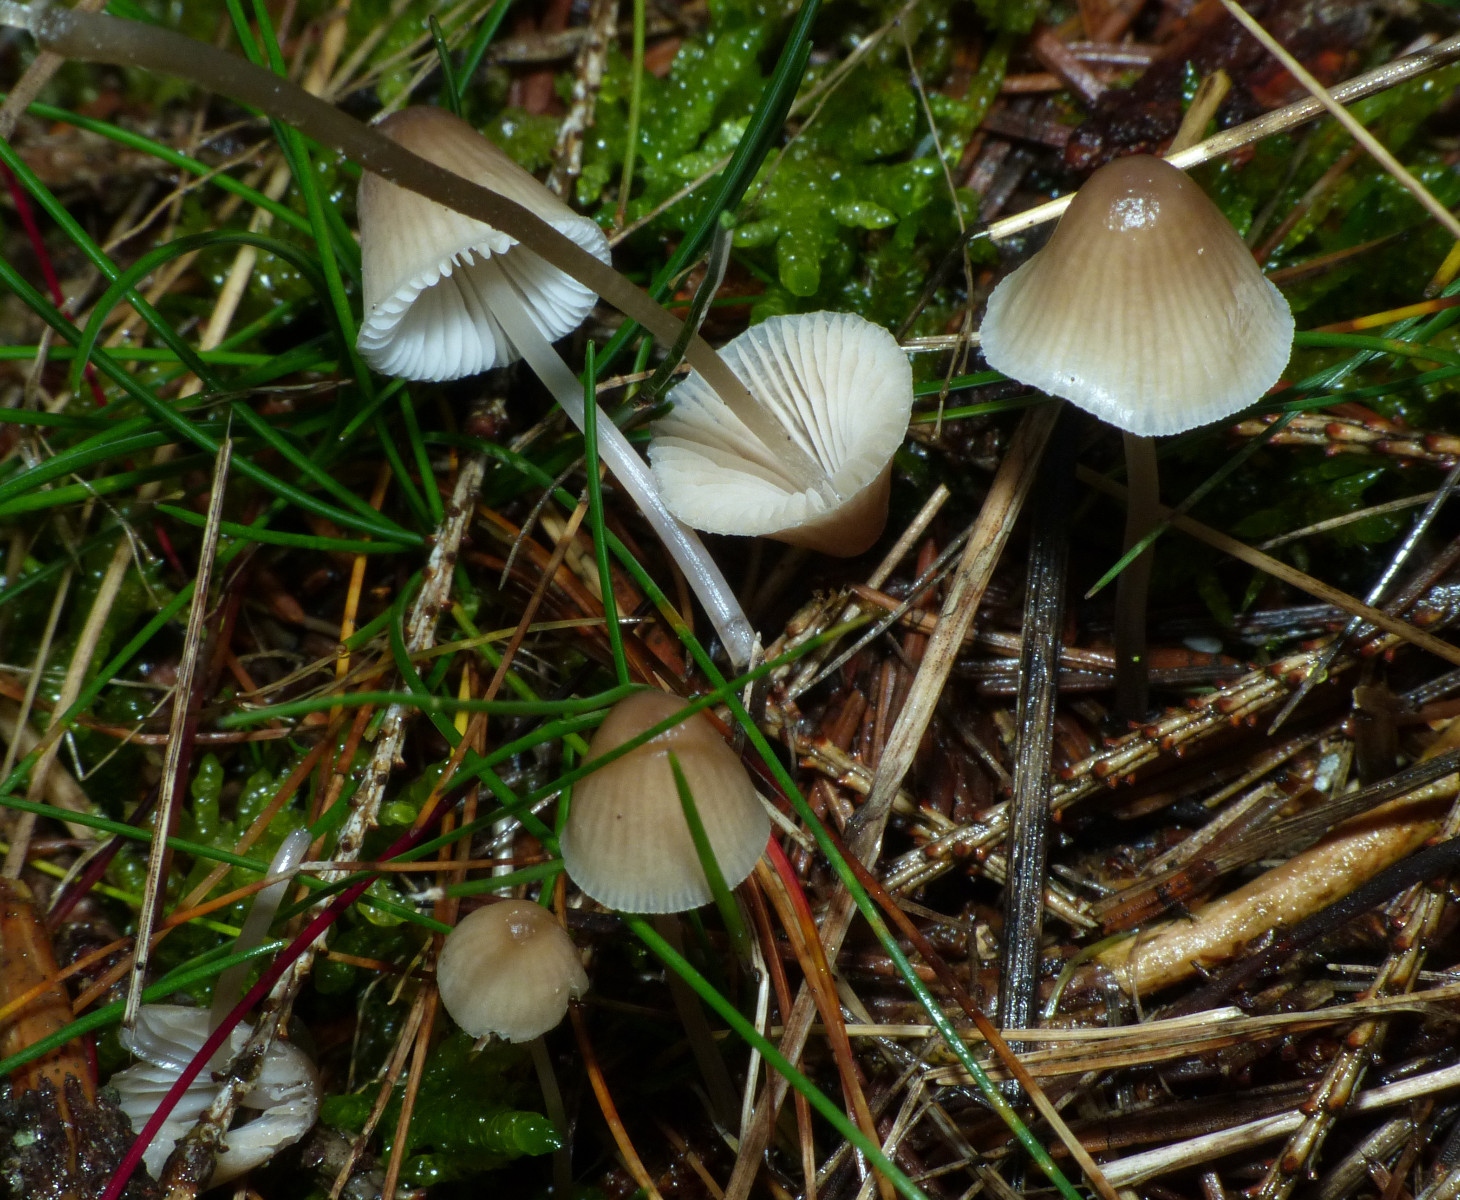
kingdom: Fungi
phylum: Basidiomycota
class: Agaricomycetes
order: Agaricales
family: Mycenaceae
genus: Mycena
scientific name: Mycena
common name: huesvamp
